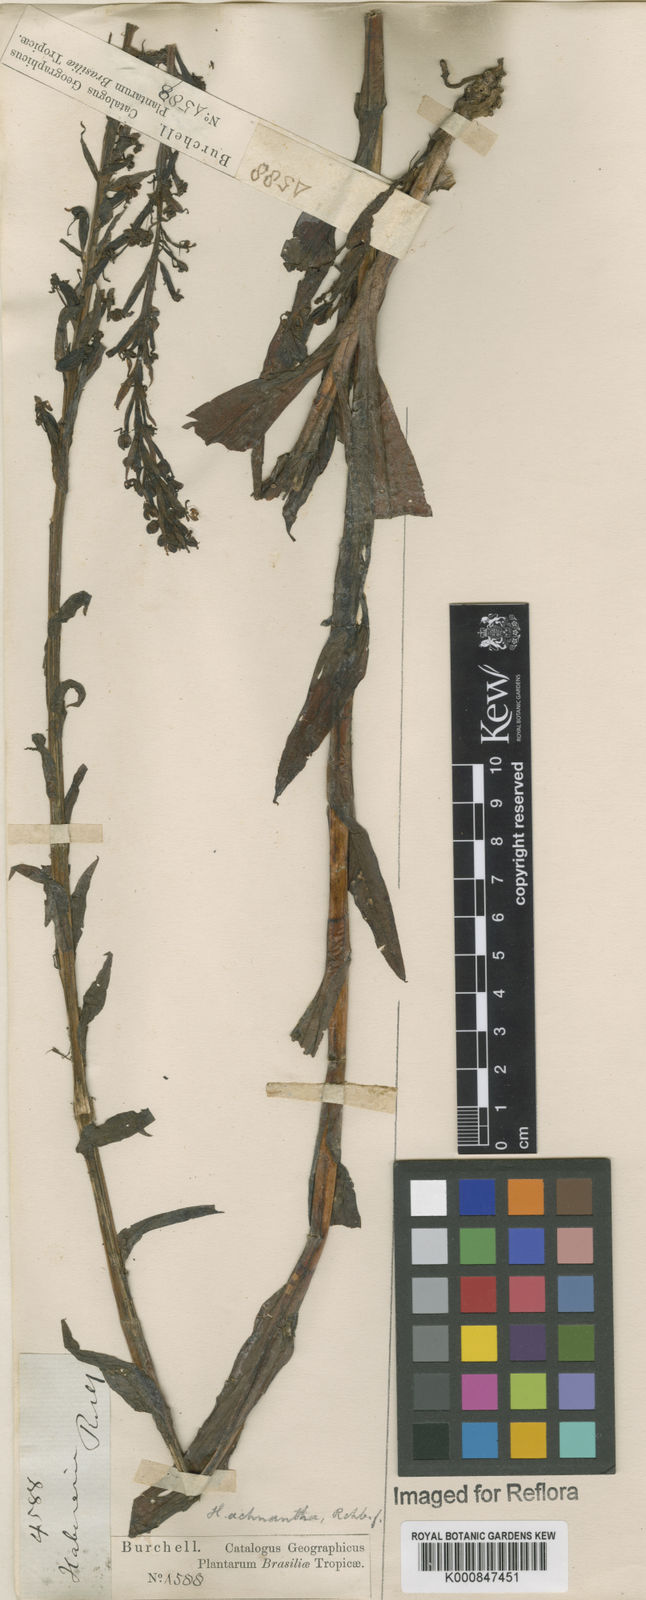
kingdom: Plantae
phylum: Tracheophyta
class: Liliopsida
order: Asparagales
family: Orchidaceae
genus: Habenaria
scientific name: Habenaria repens
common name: Water orchid
